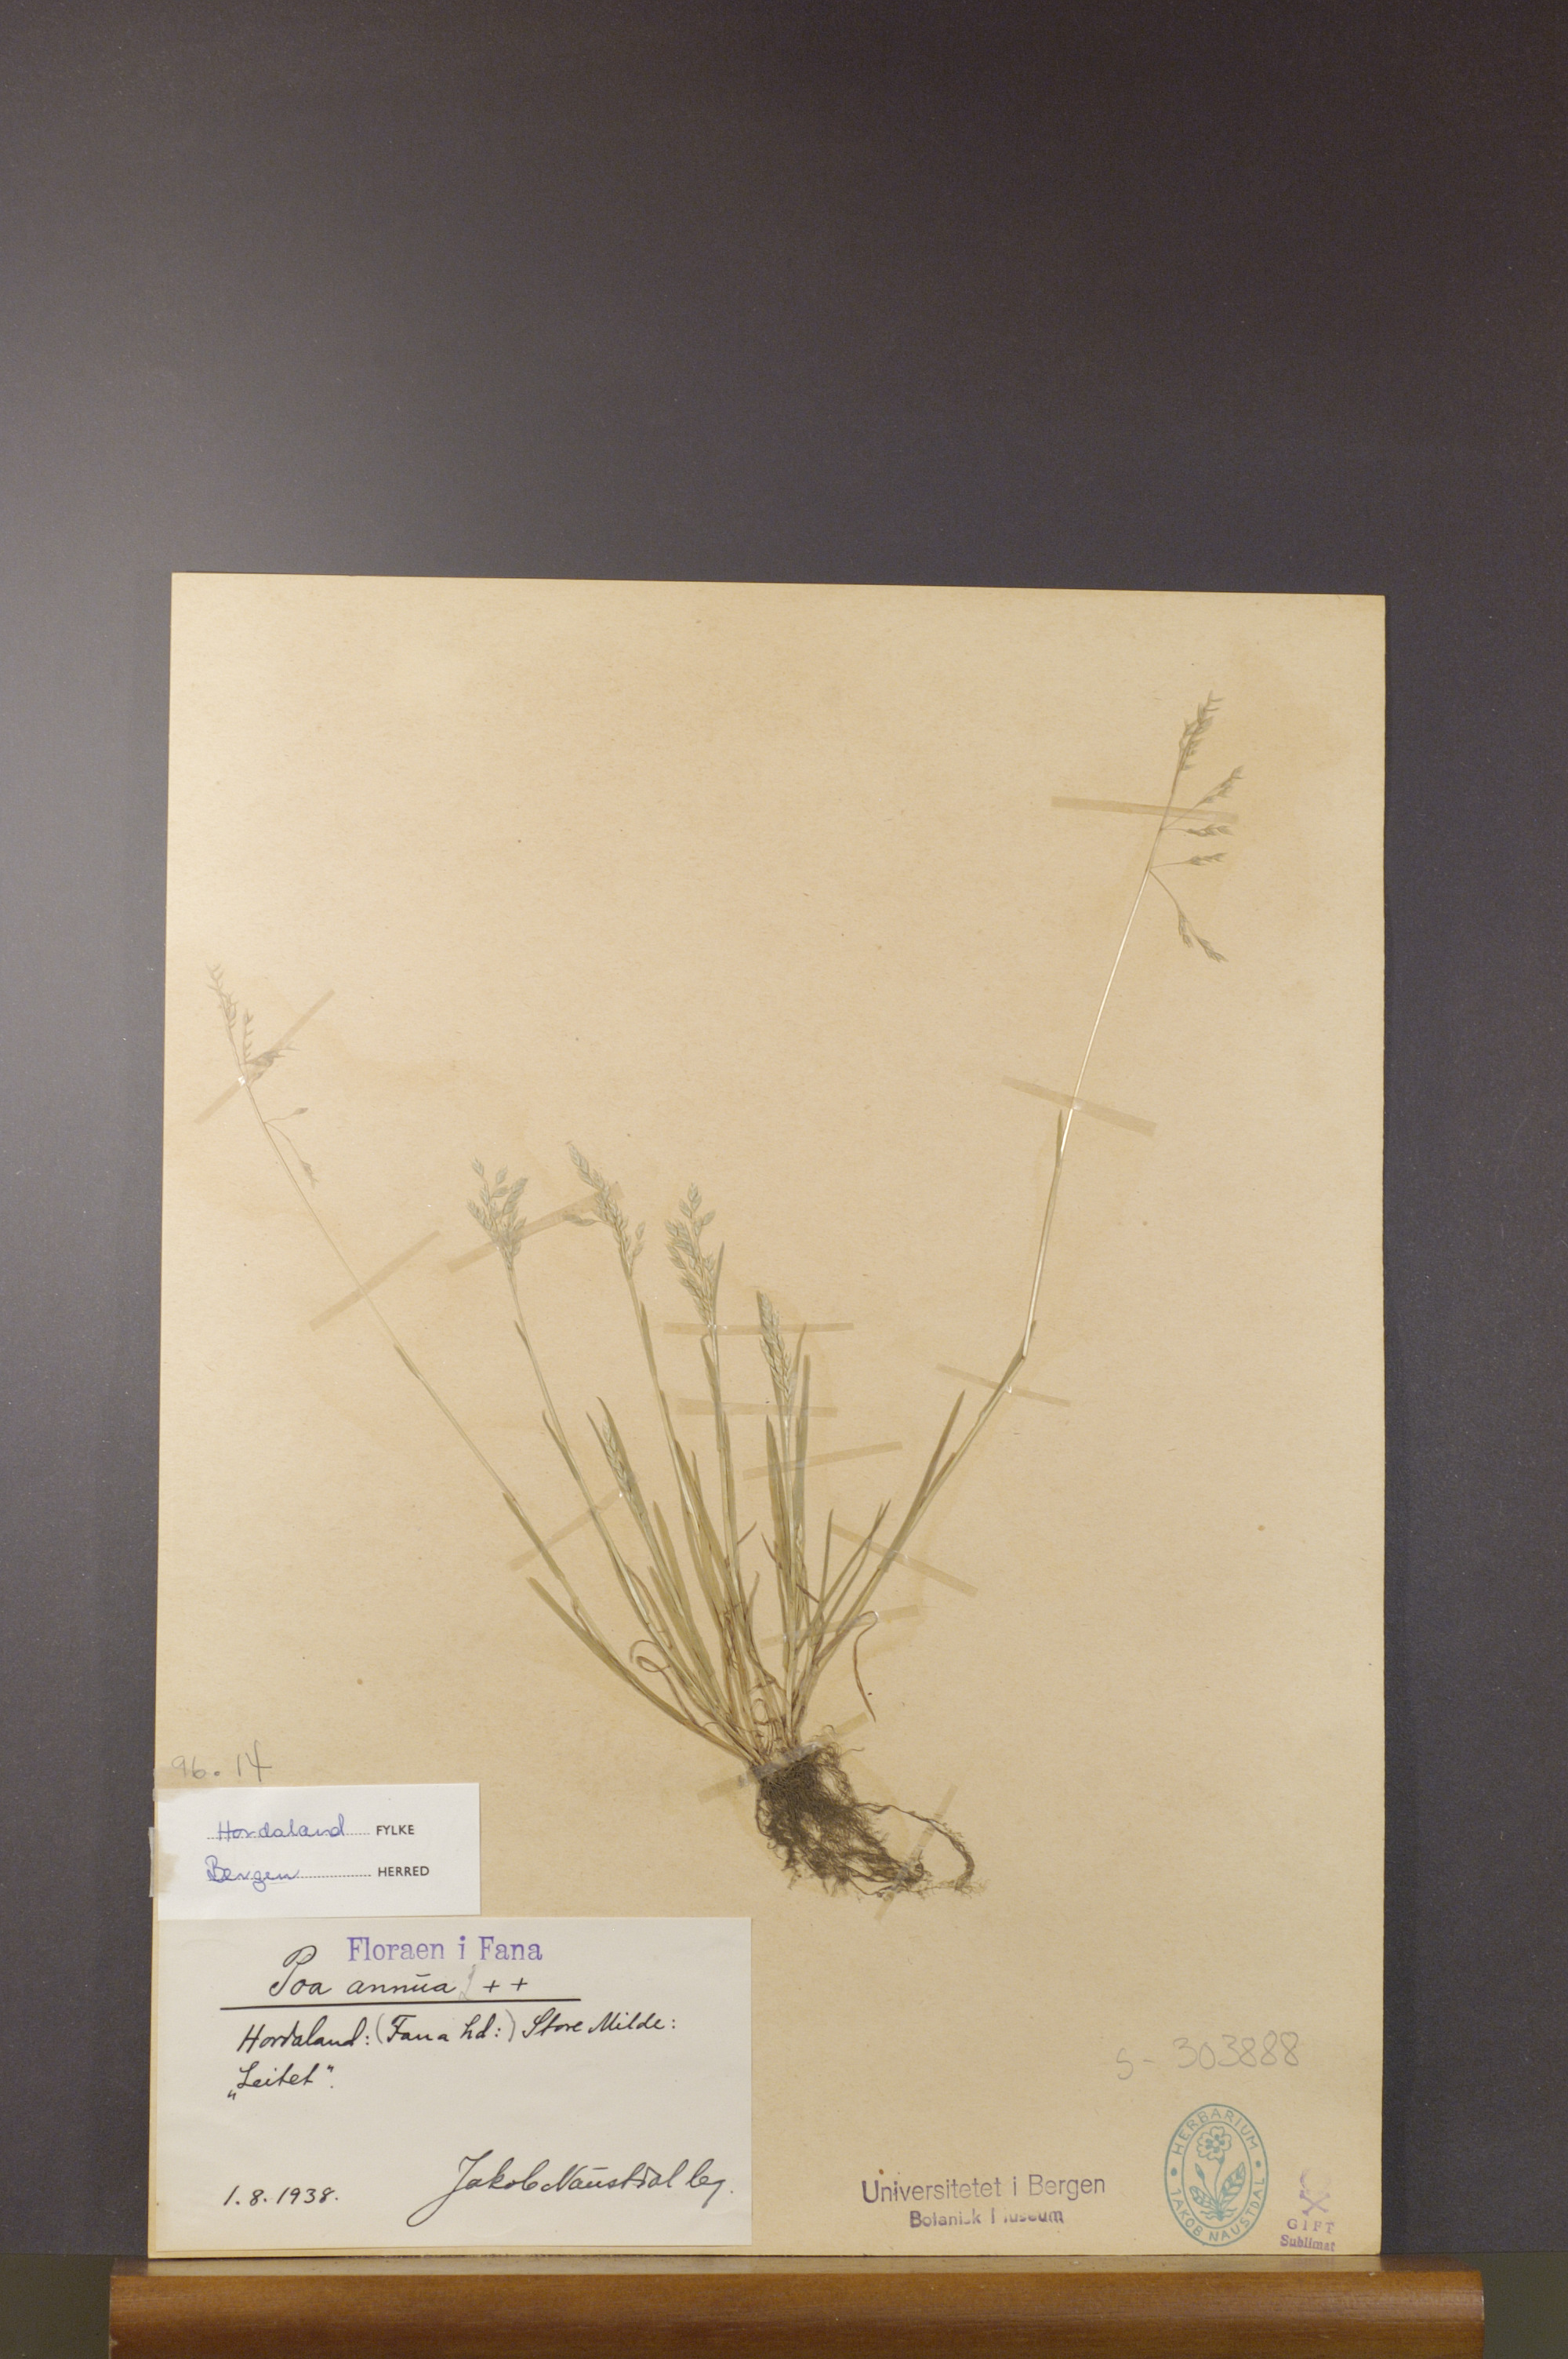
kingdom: Plantae
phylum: Tracheophyta
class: Liliopsida
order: Poales
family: Poaceae
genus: Poa
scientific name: Poa annua
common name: Annual bluegrass
